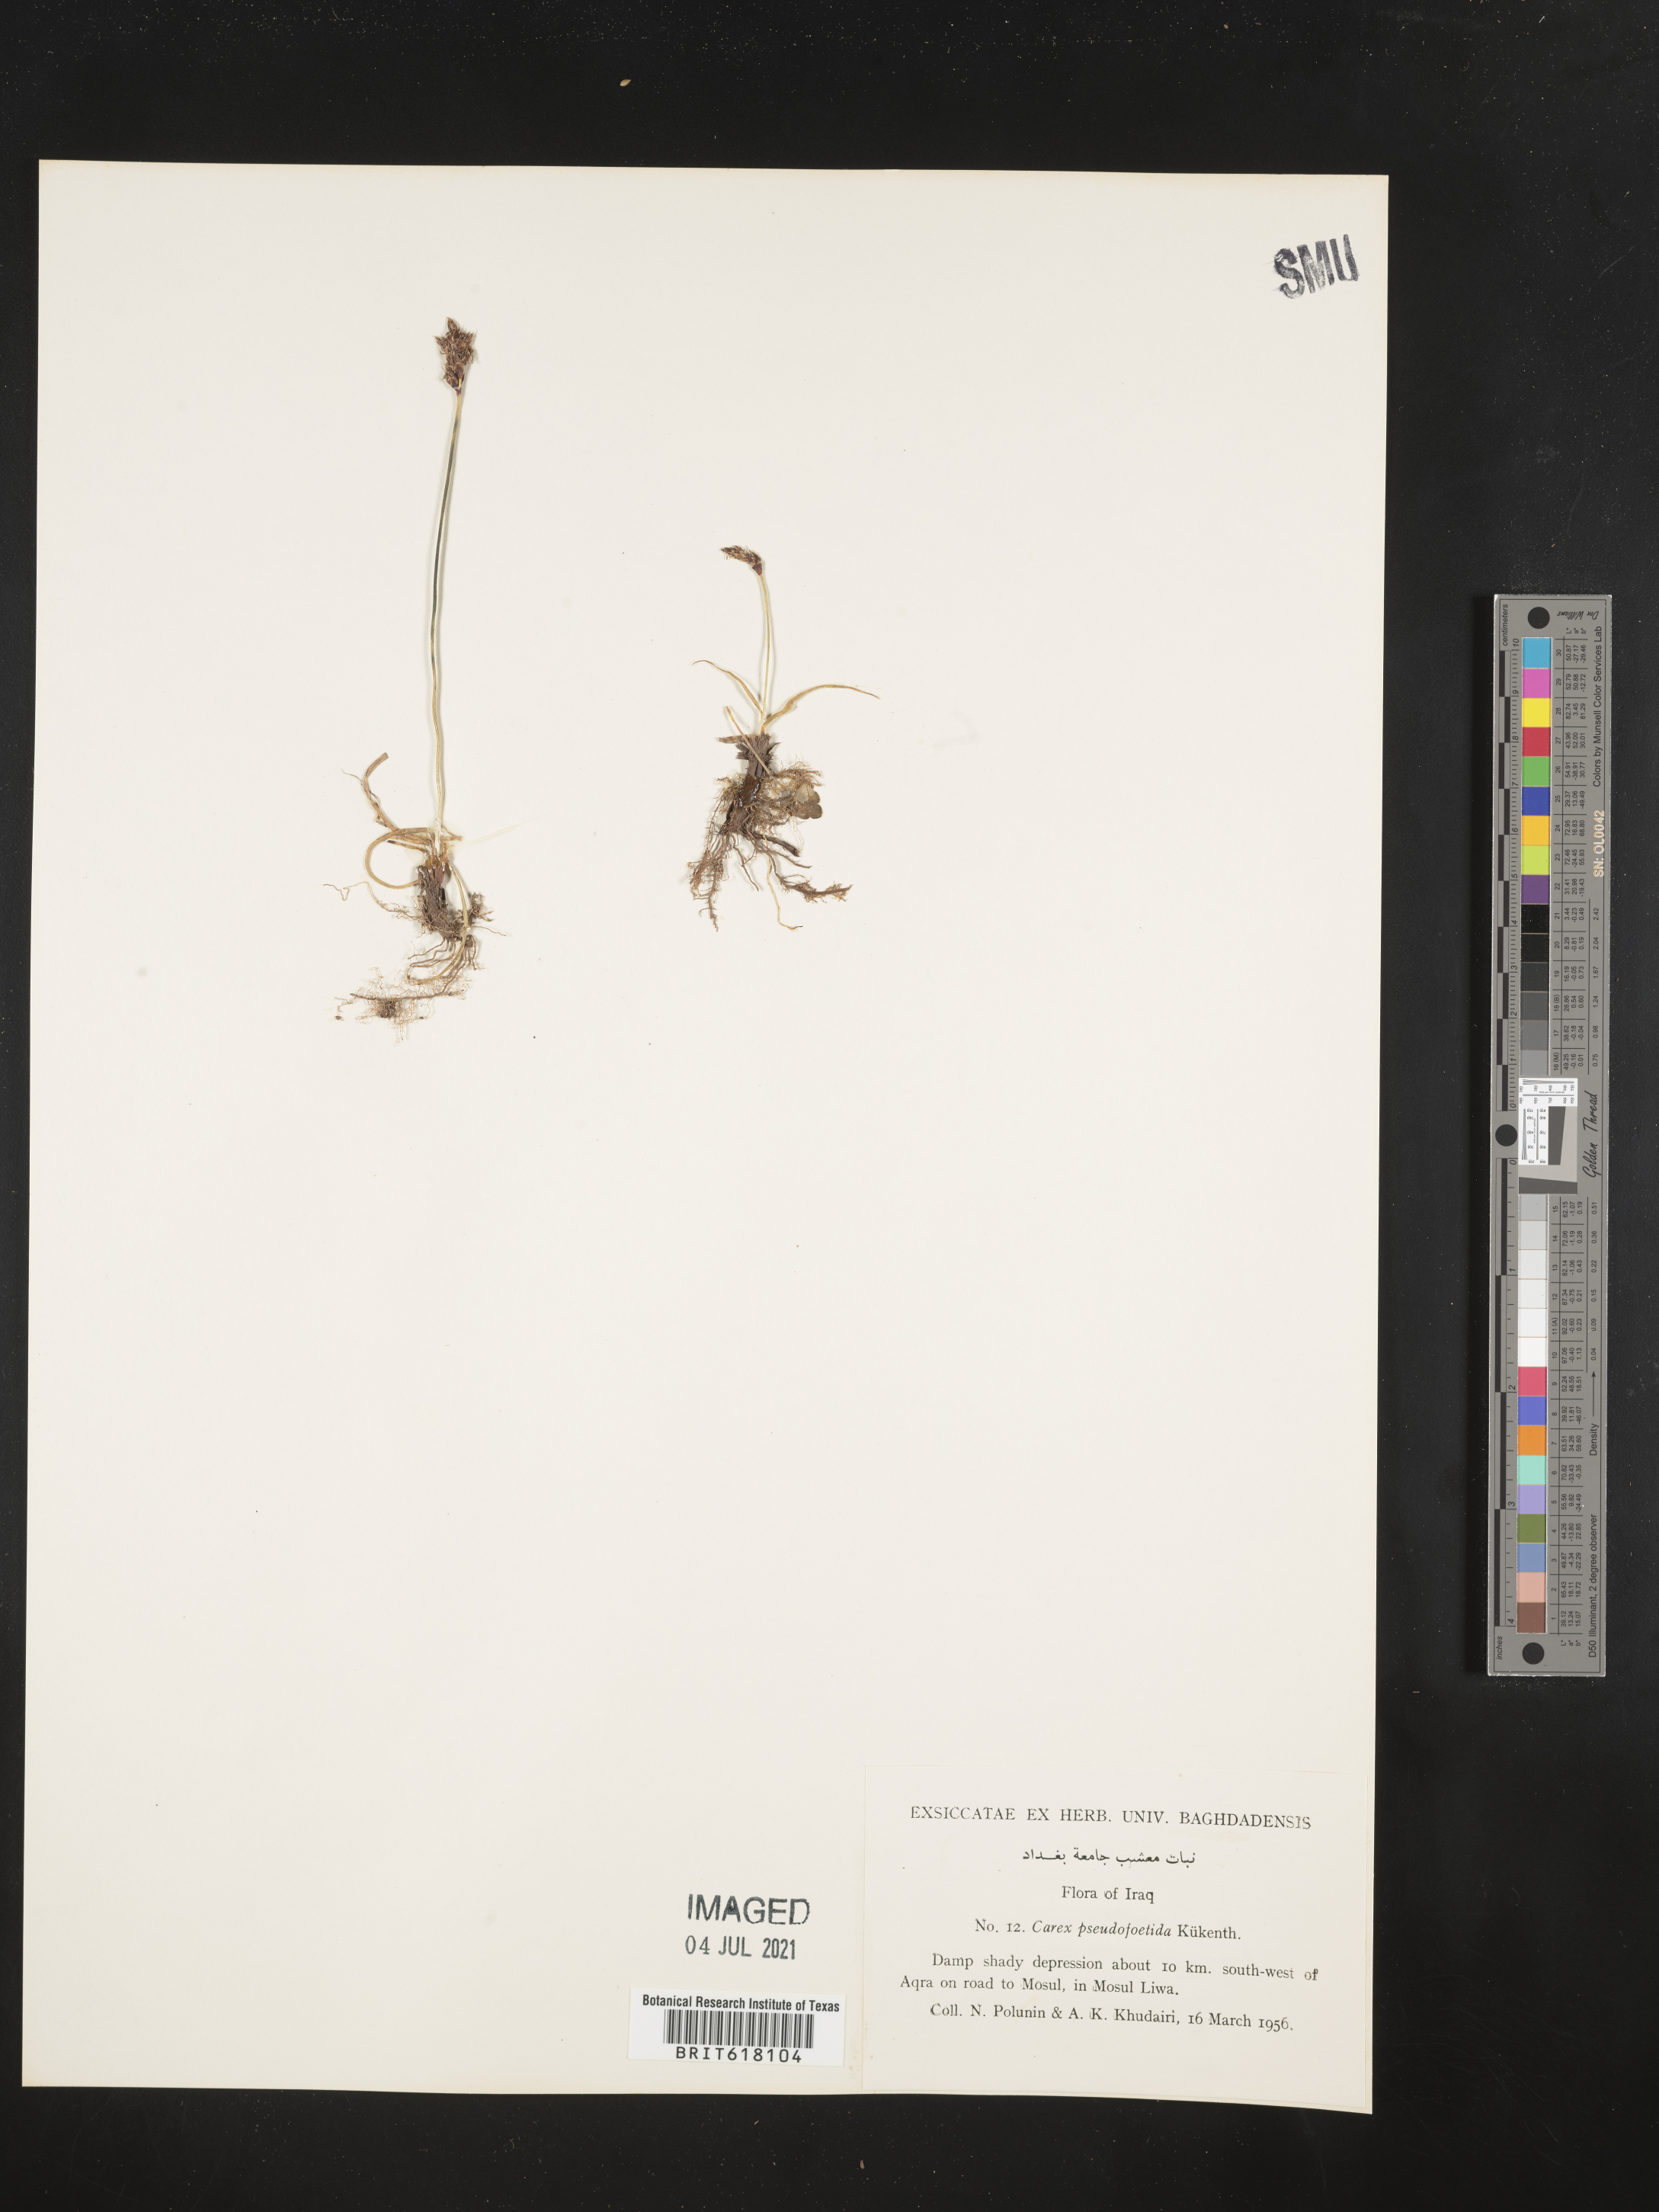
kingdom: Plantae
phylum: Tracheophyta
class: Liliopsida
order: Poales
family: Cyperaceae
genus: Carex
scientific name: Carex pseudofoetida
